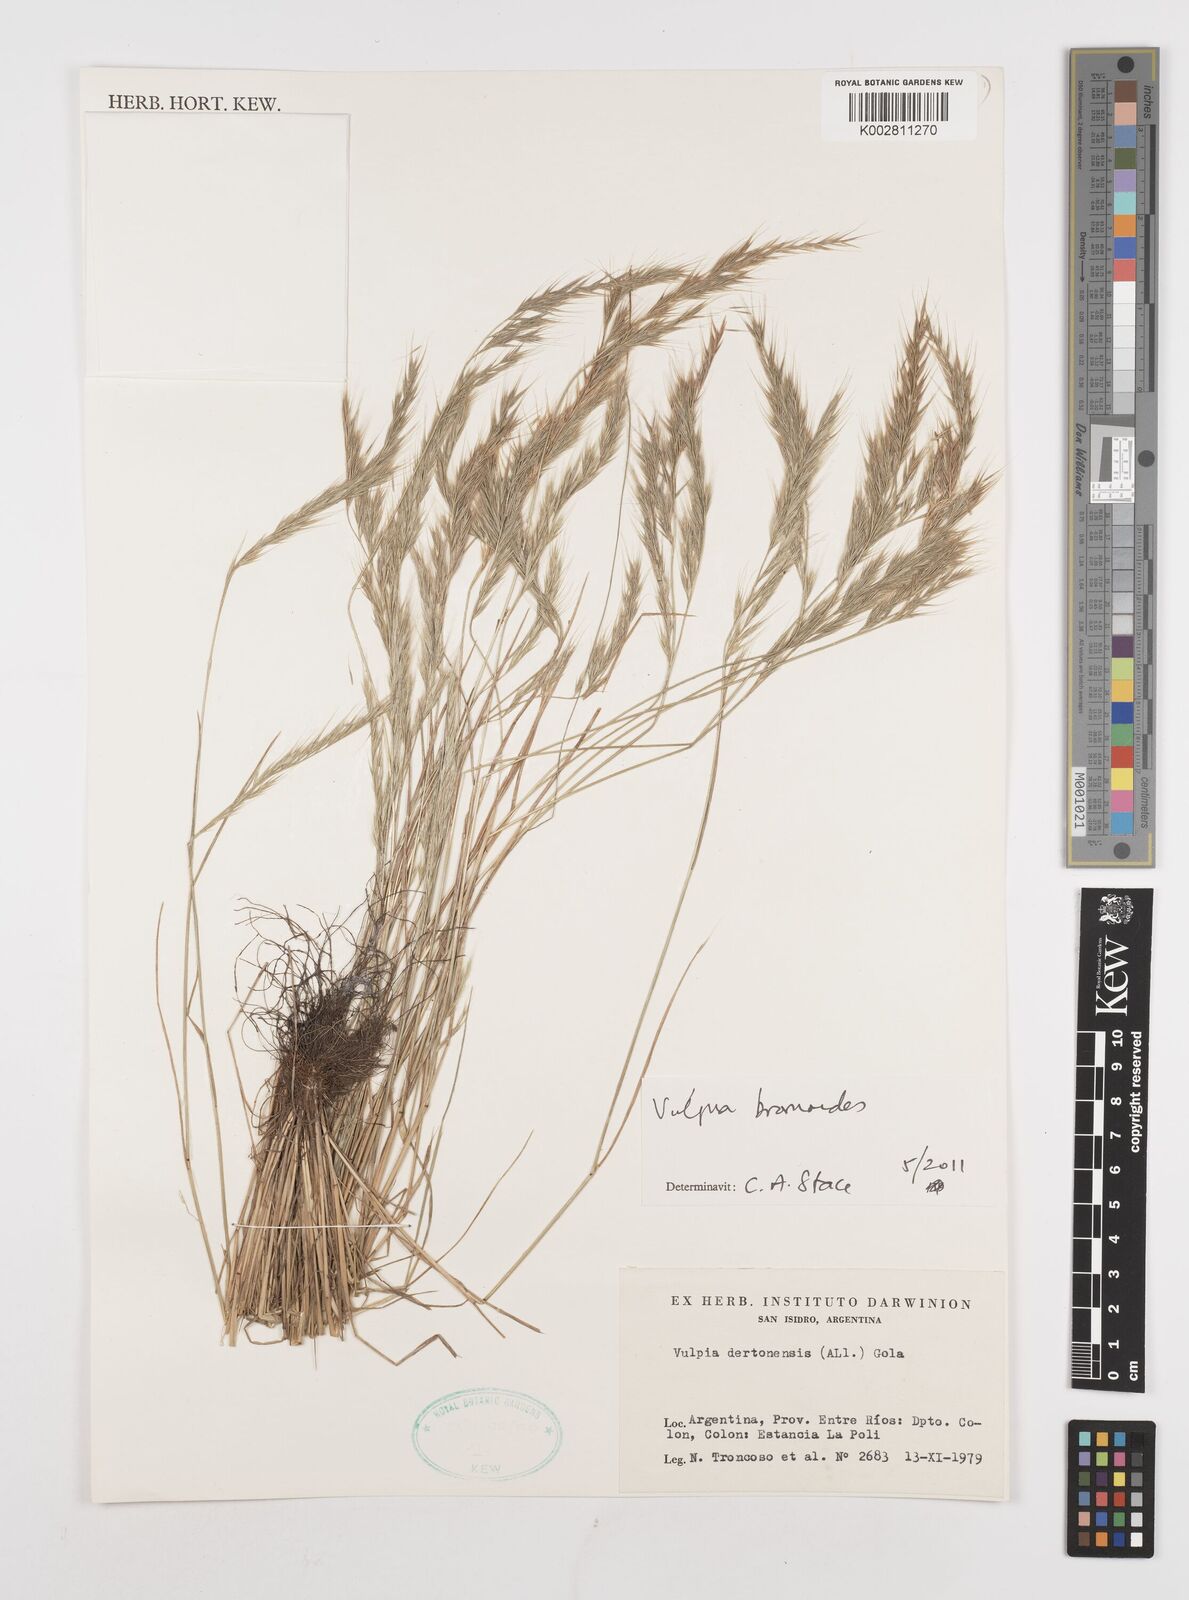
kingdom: Plantae
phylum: Tracheophyta
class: Liliopsida
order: Poales
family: Poaceae
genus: Festuca
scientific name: Festuca bromoides
